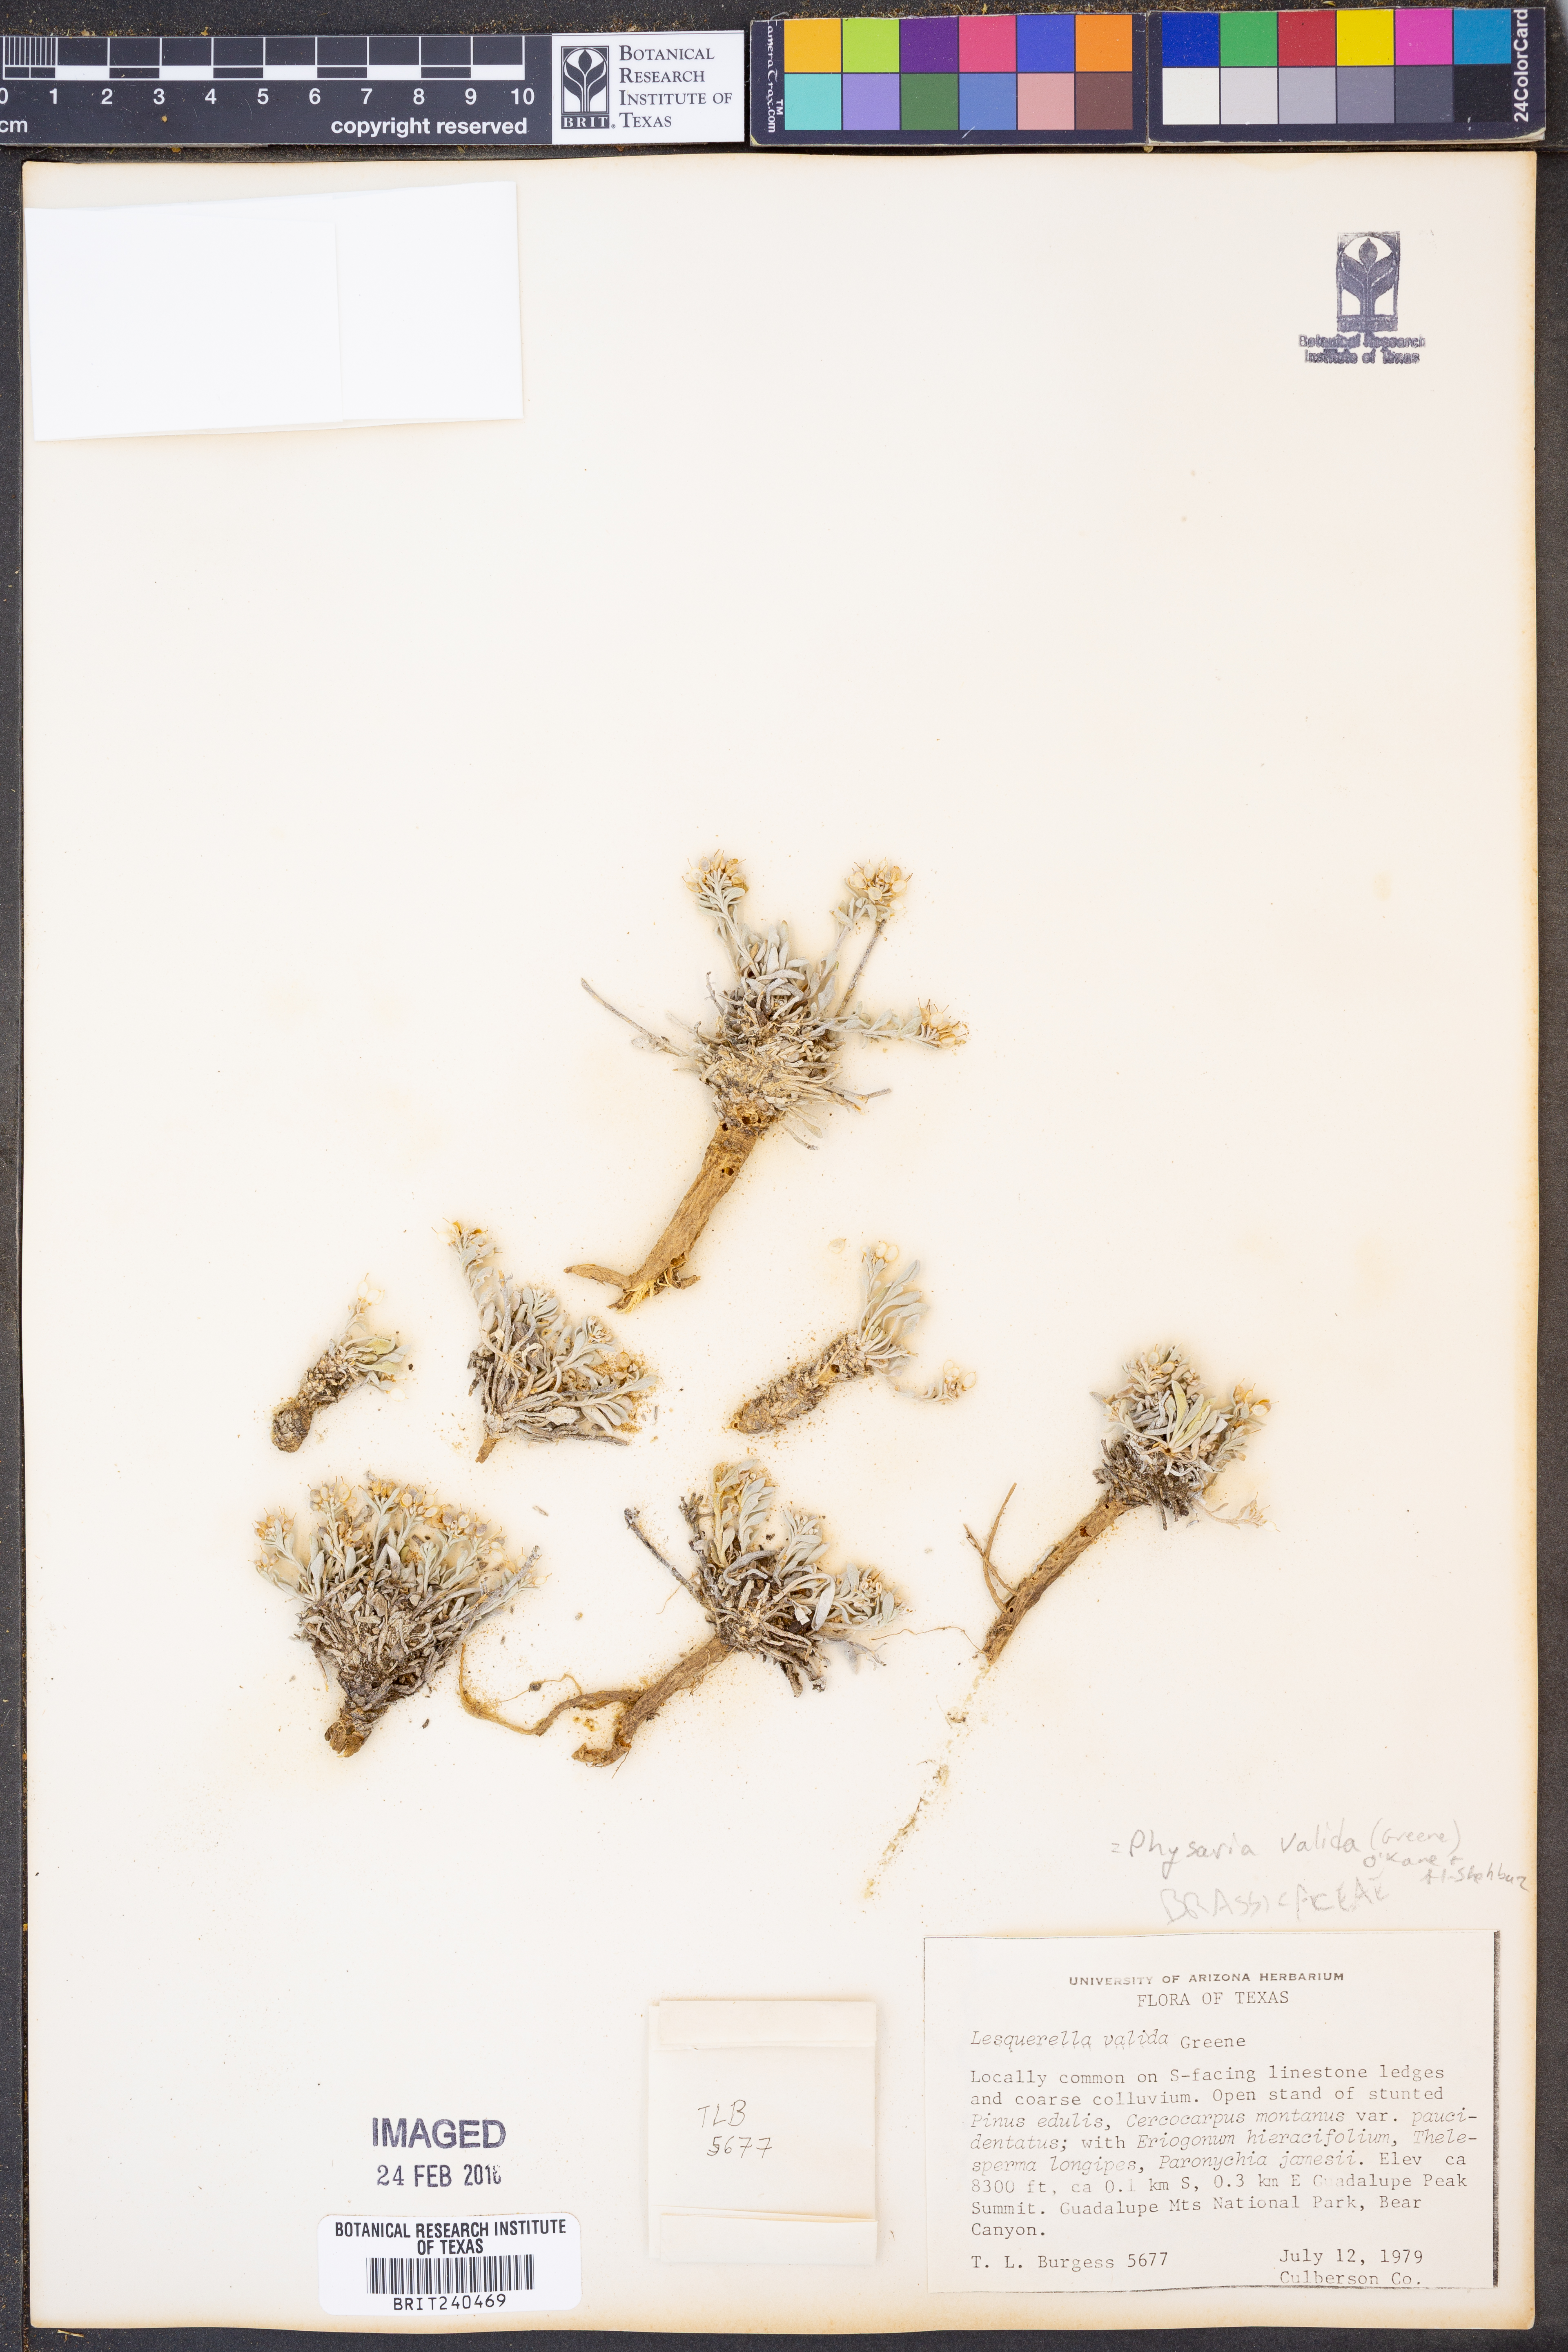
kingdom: Plantae
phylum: Tracheophyta
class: Magnoliopsida
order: Brassicales
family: Brassicaceae
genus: Physaria
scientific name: Physaria valida
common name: Strong bladderpod
